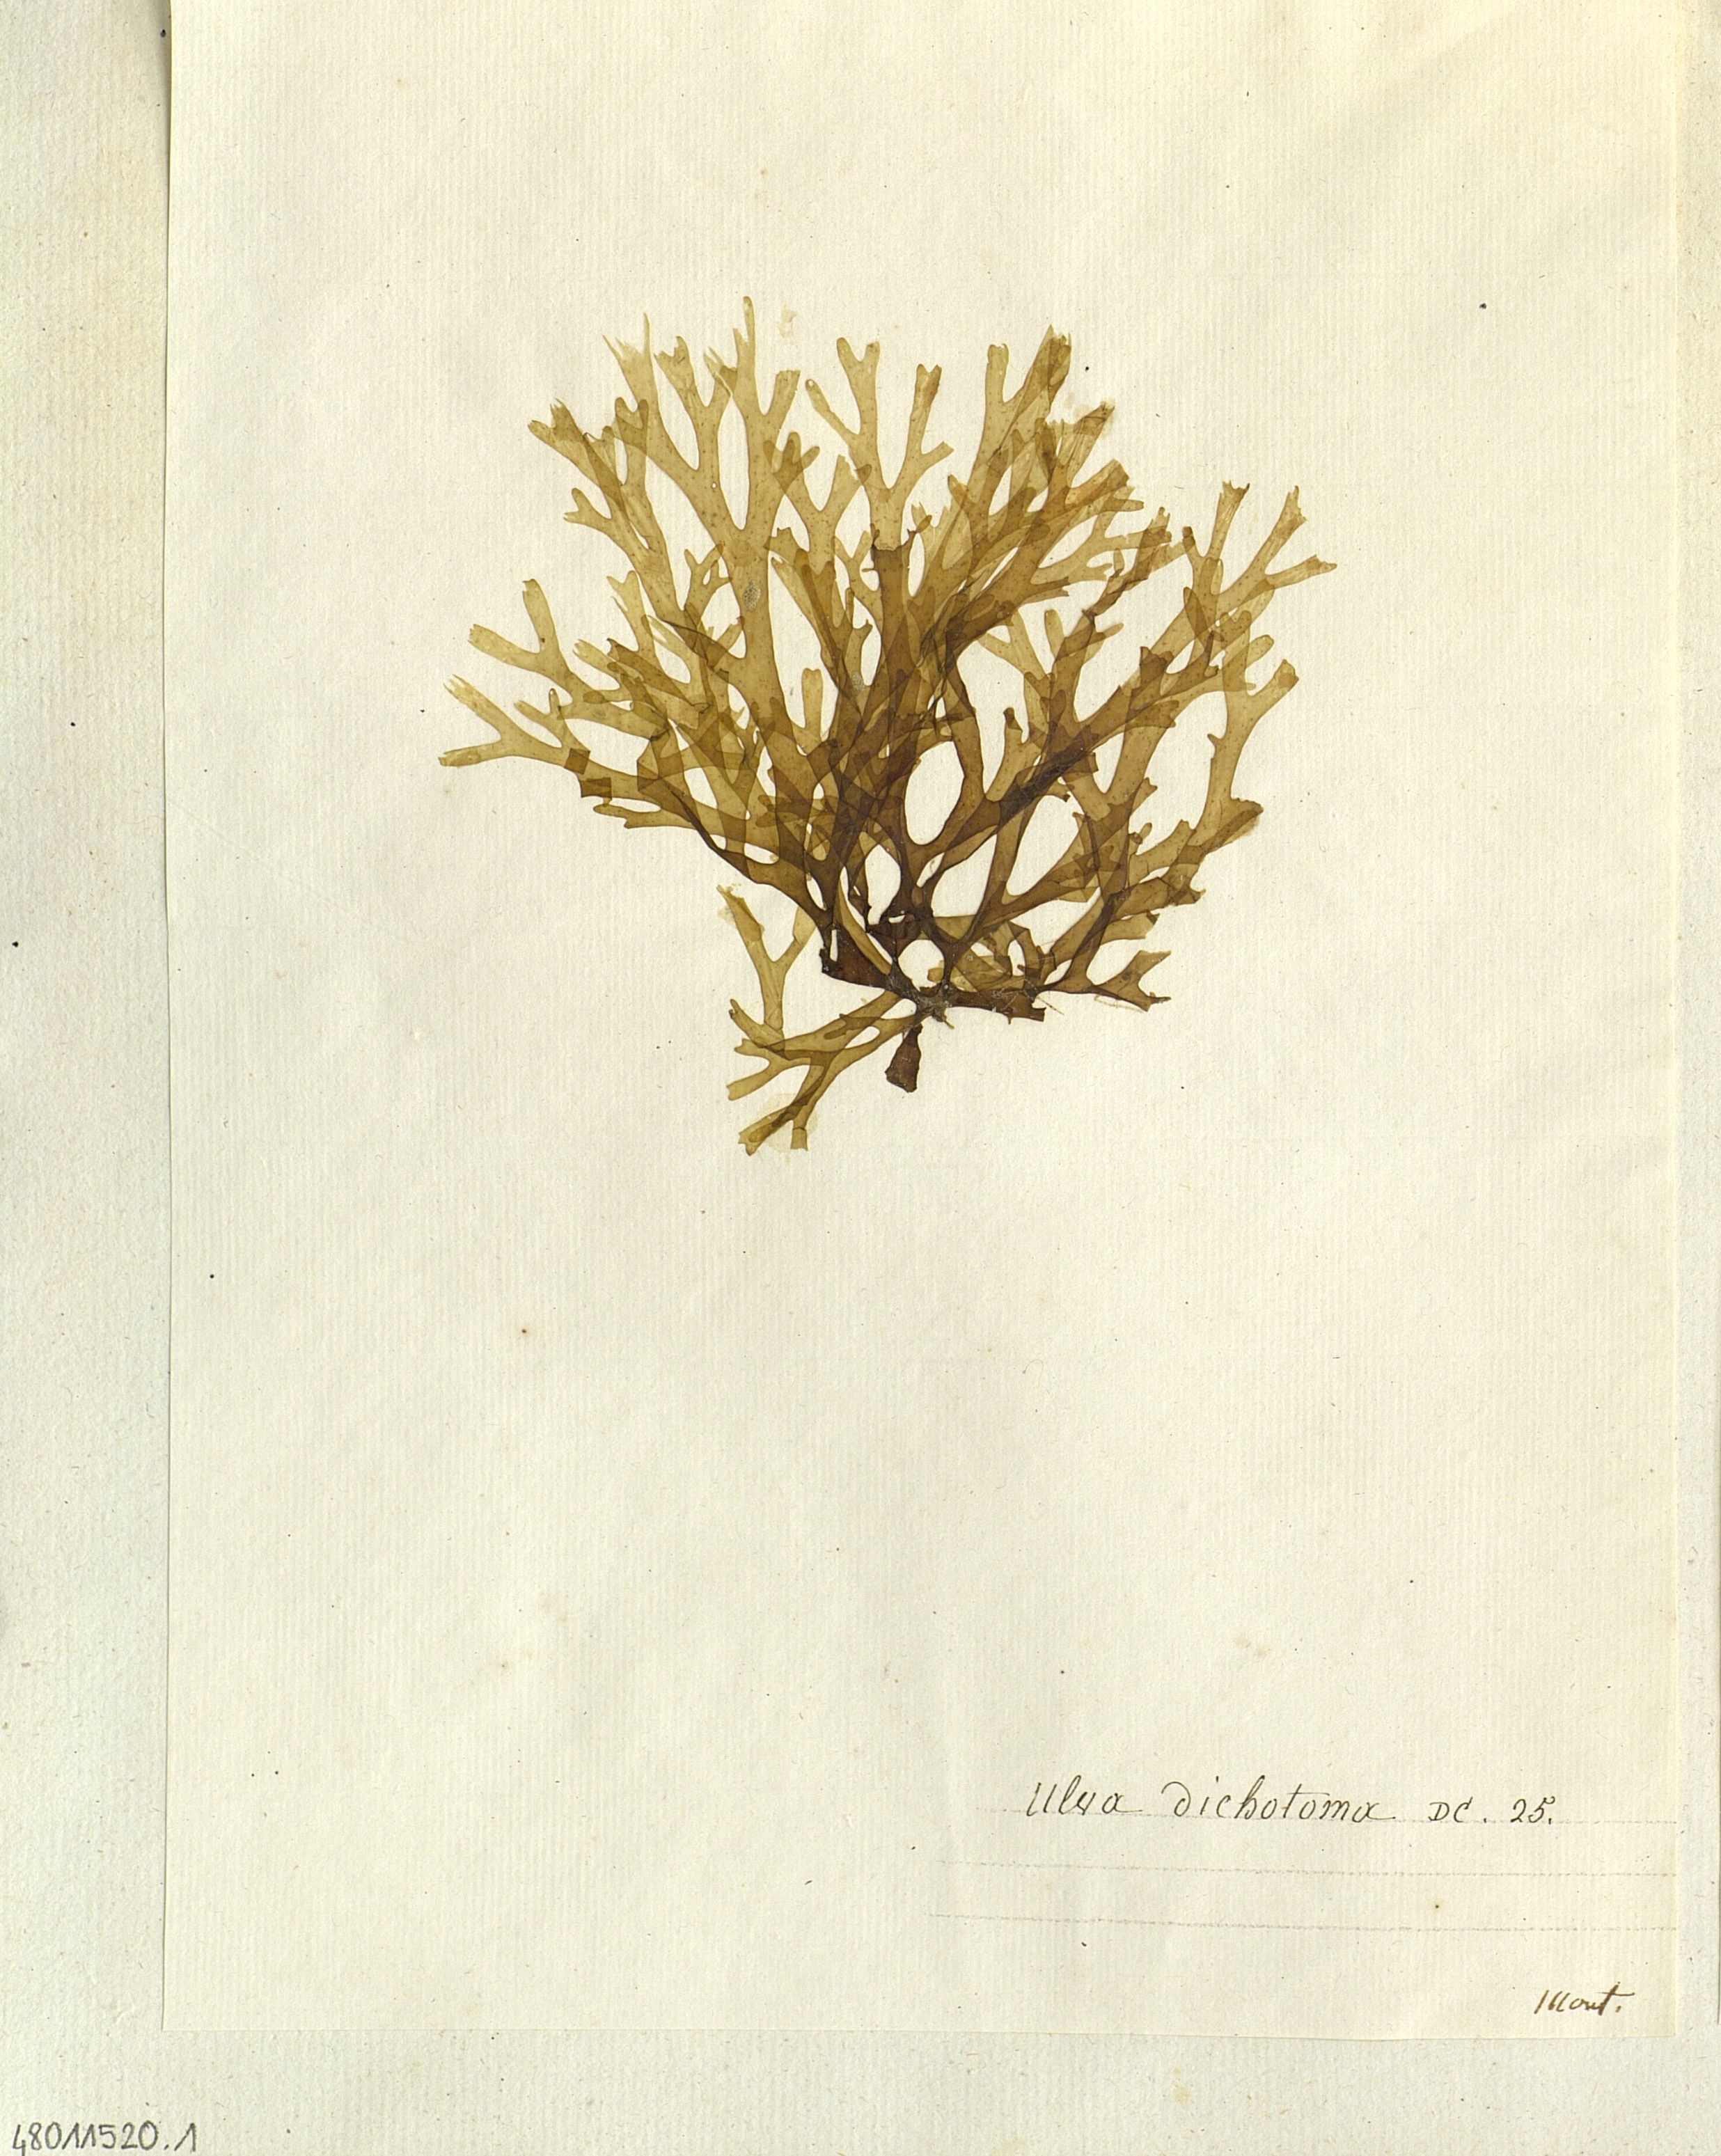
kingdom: Plantae
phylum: Chlorophyta
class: Ulvophyceae
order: Ulvales
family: Ulvaceae
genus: Ulva
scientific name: Ulva
